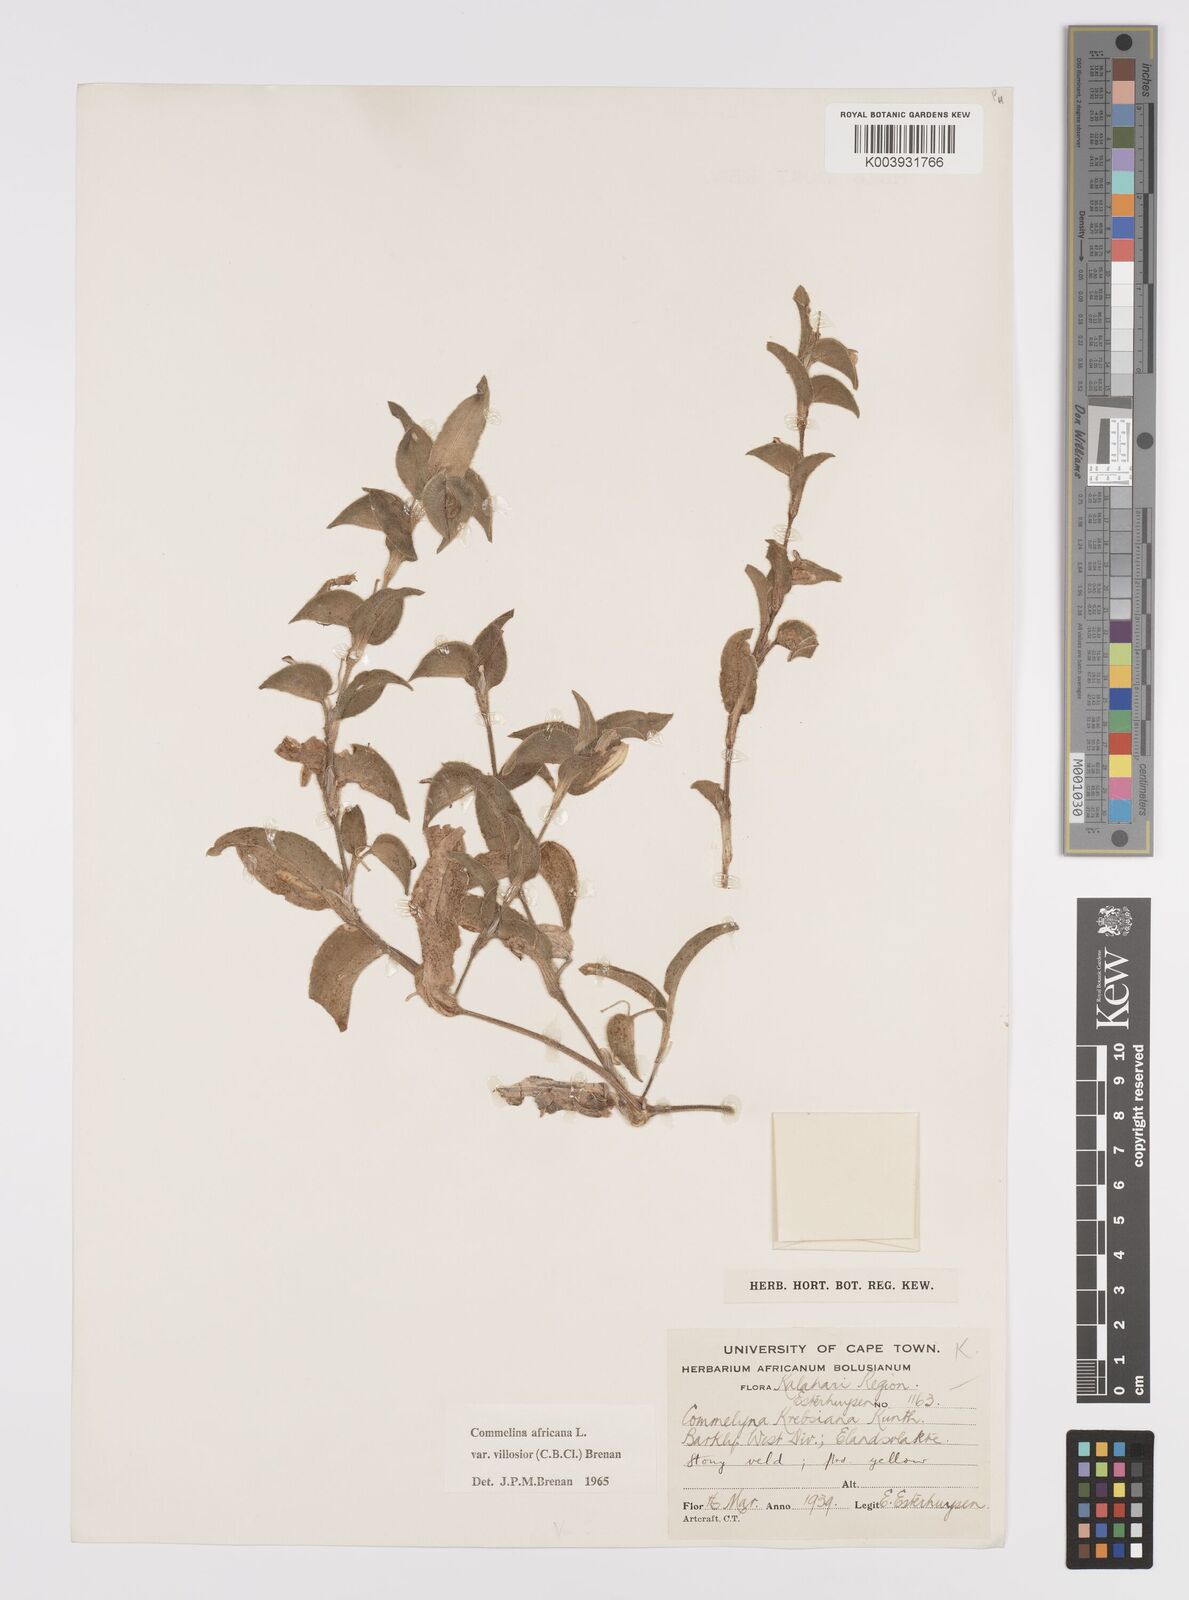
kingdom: Plantae
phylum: Tracheophyta
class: Liliopsida
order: Commelinales
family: Commelinaceae
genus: Commelina
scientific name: Commelina africana
